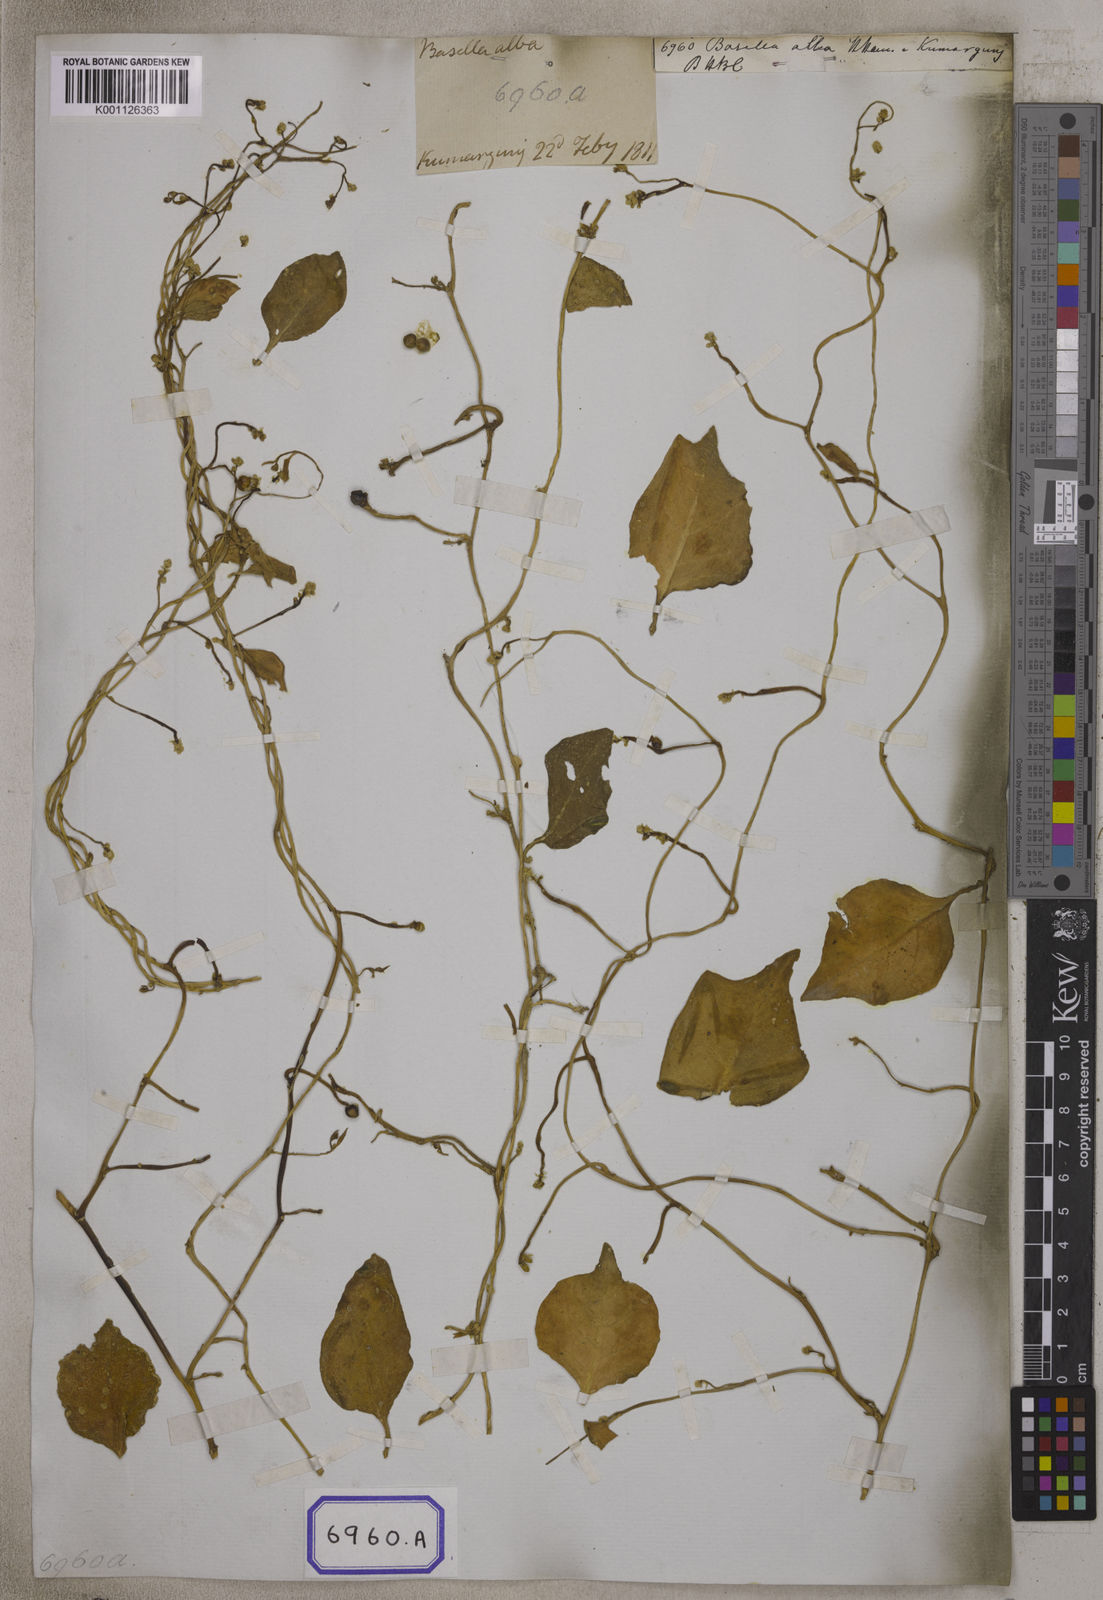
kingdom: Plantae
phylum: Tracheophyta
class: Magnoliopsida
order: Caryophyllales
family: Basellaceae
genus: Basella
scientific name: Basella alba
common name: Indian spinach
